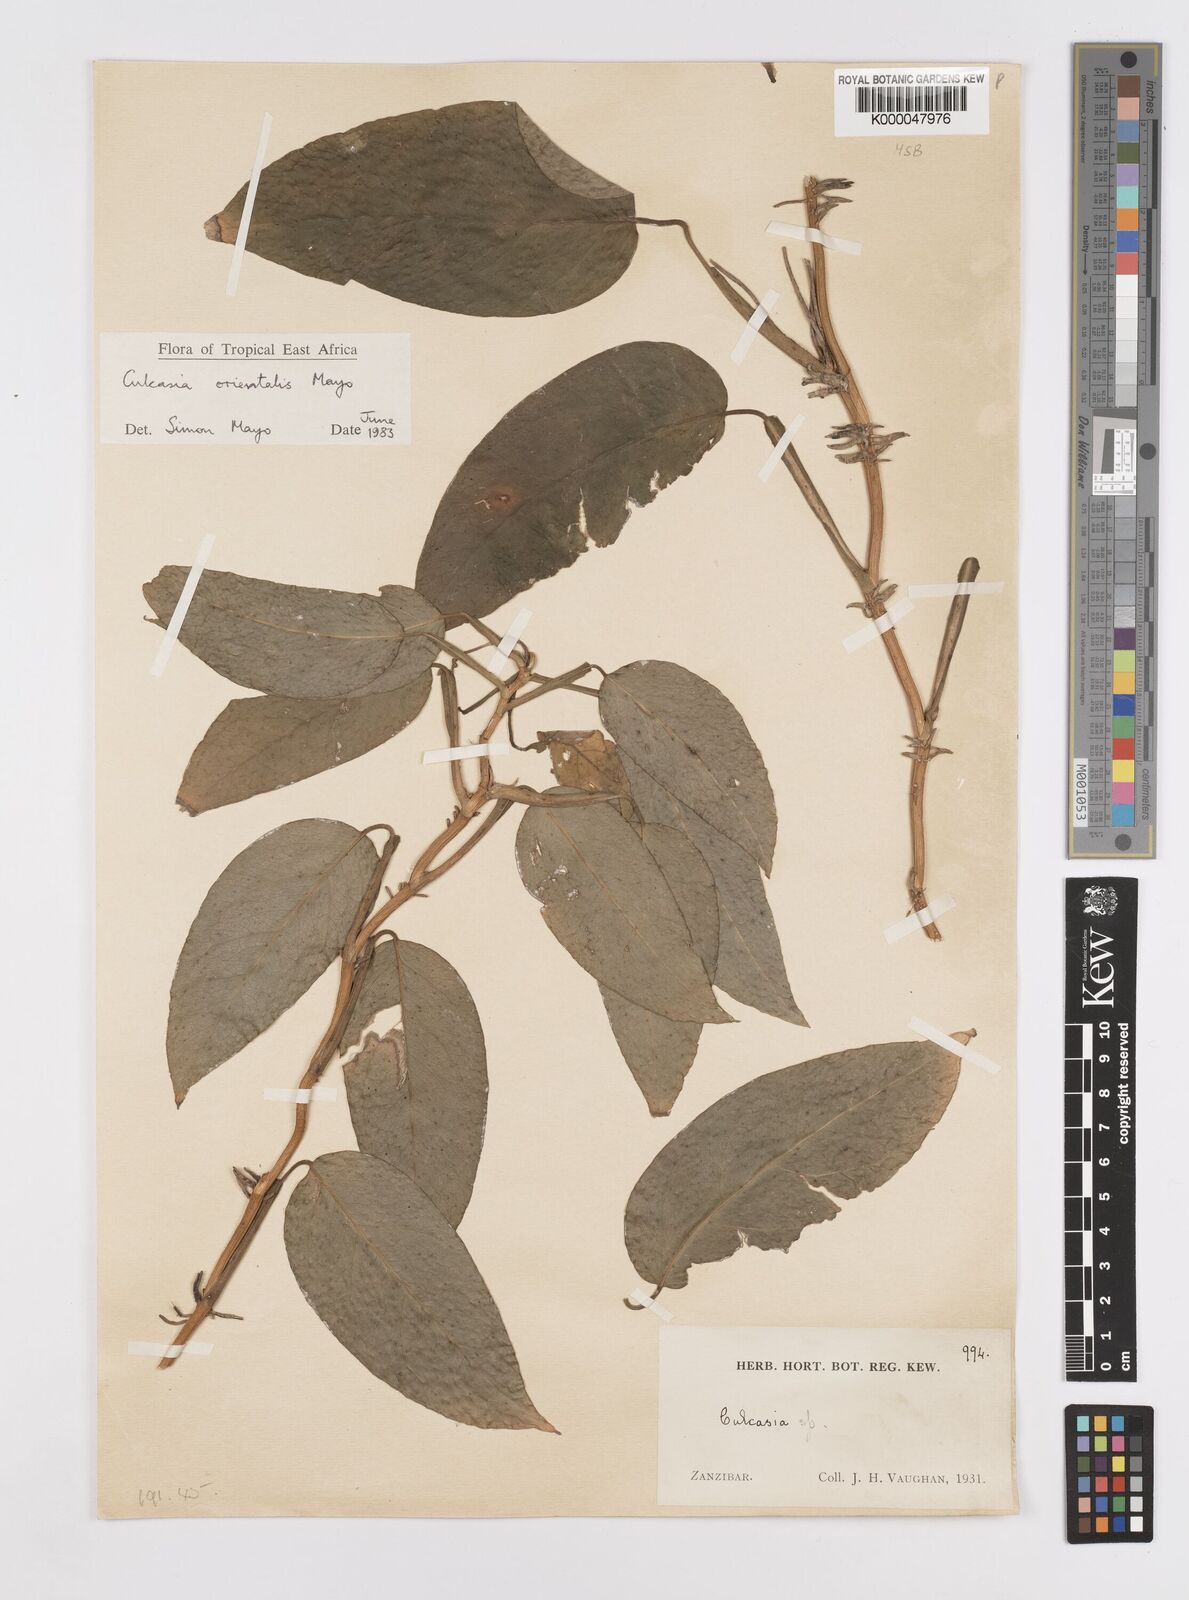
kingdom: Plantae
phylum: Tracheophyta
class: Liliopsida
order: Alismatales
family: Araceae
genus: Culcasia
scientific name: Culcasia orientalis
